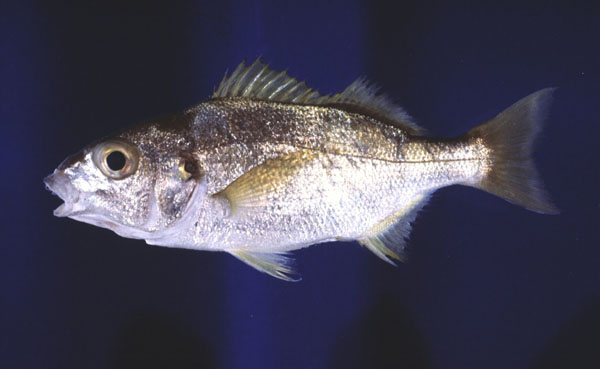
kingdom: Animalia
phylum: Chordata
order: Perciformes
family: Haemulidae
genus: Pomadasys
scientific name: Pomadasys olivaceus
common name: Olive grunt
